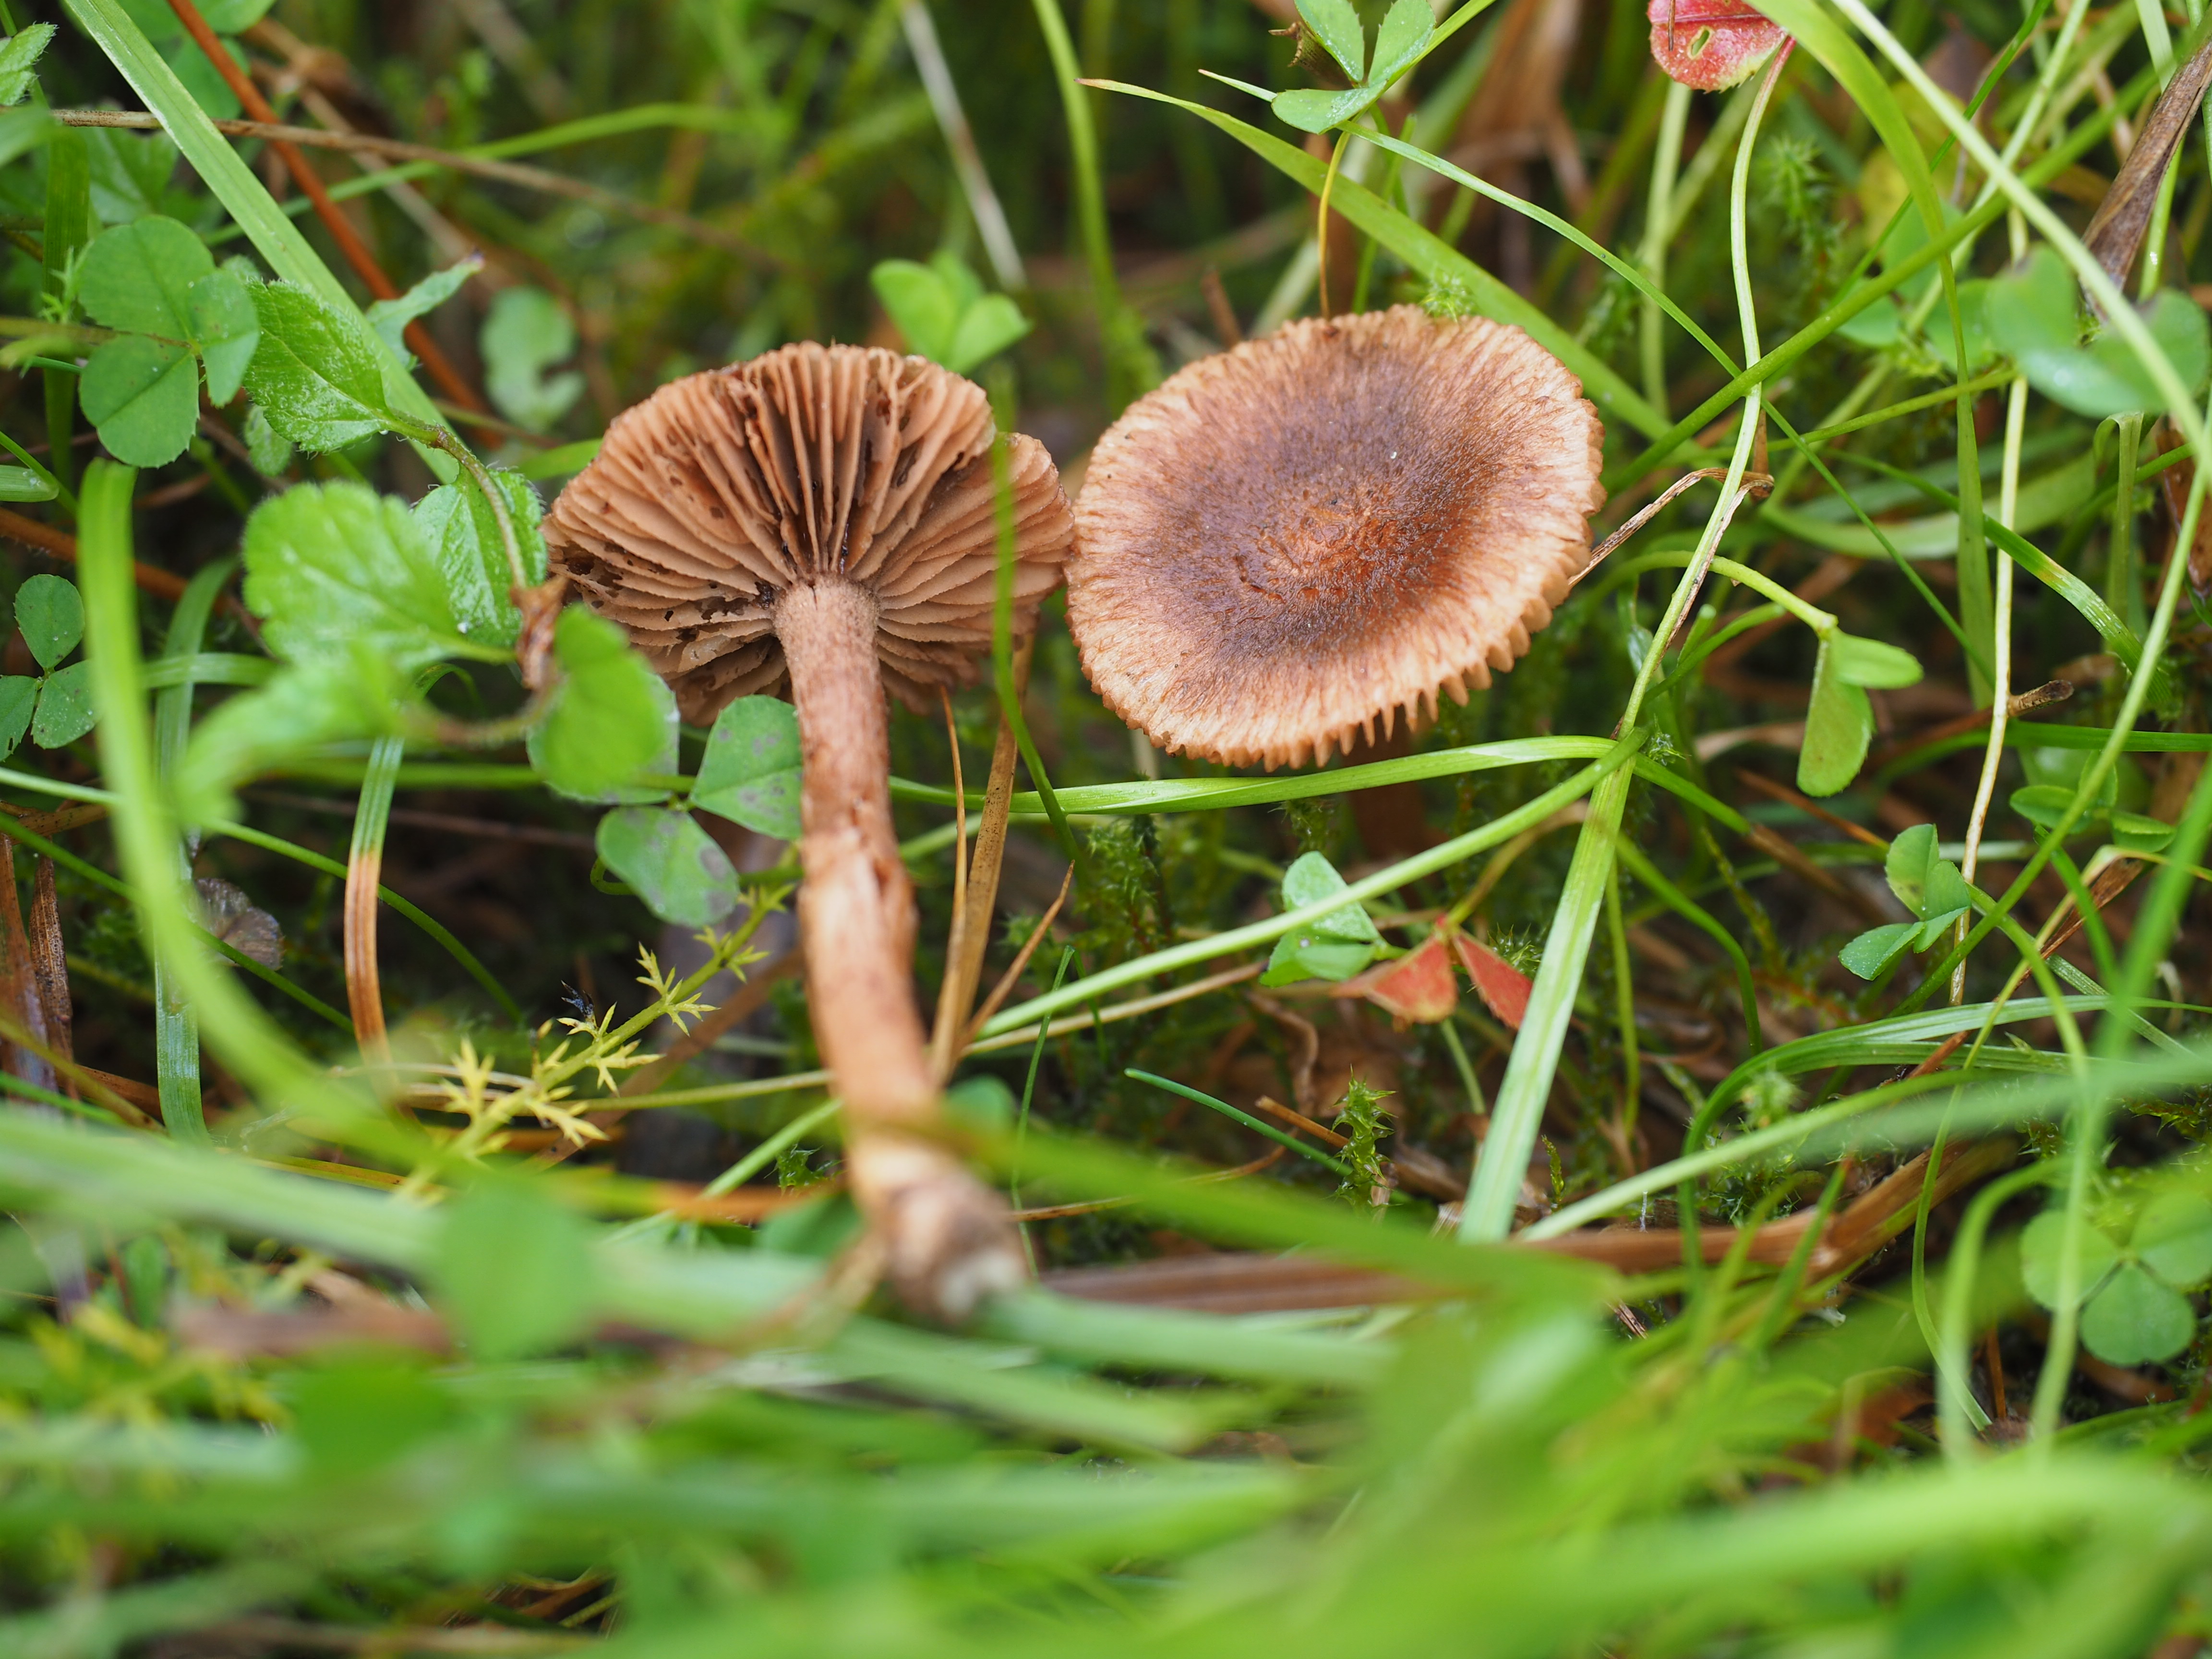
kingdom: Fungi
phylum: Basidiomycota
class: Agaricomycetes
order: Agaricales
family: Inocybaceae
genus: Inocybe
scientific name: Inocybe cincinnata
